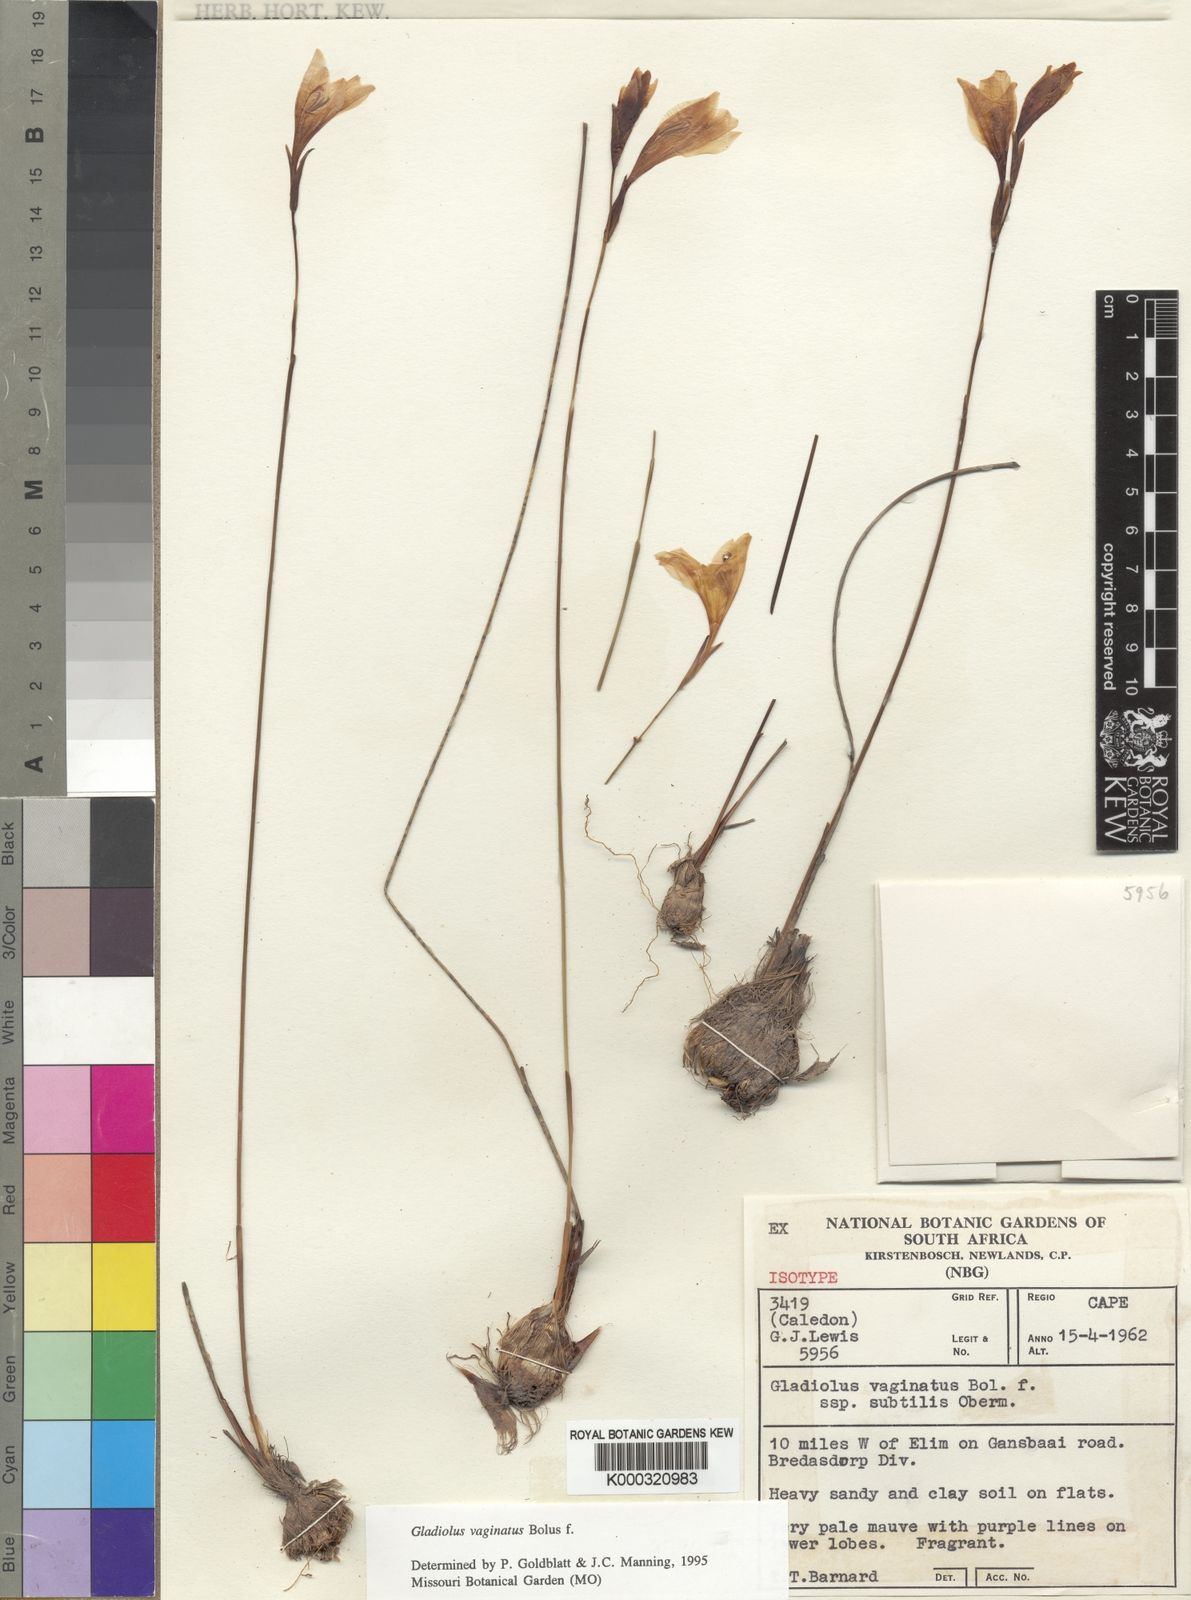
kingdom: Plantae
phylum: Tracheophyta
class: Liliopsida
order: Asparagales
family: Iridaceae
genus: Gladiolus
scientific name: Gladiolus vaginatus
